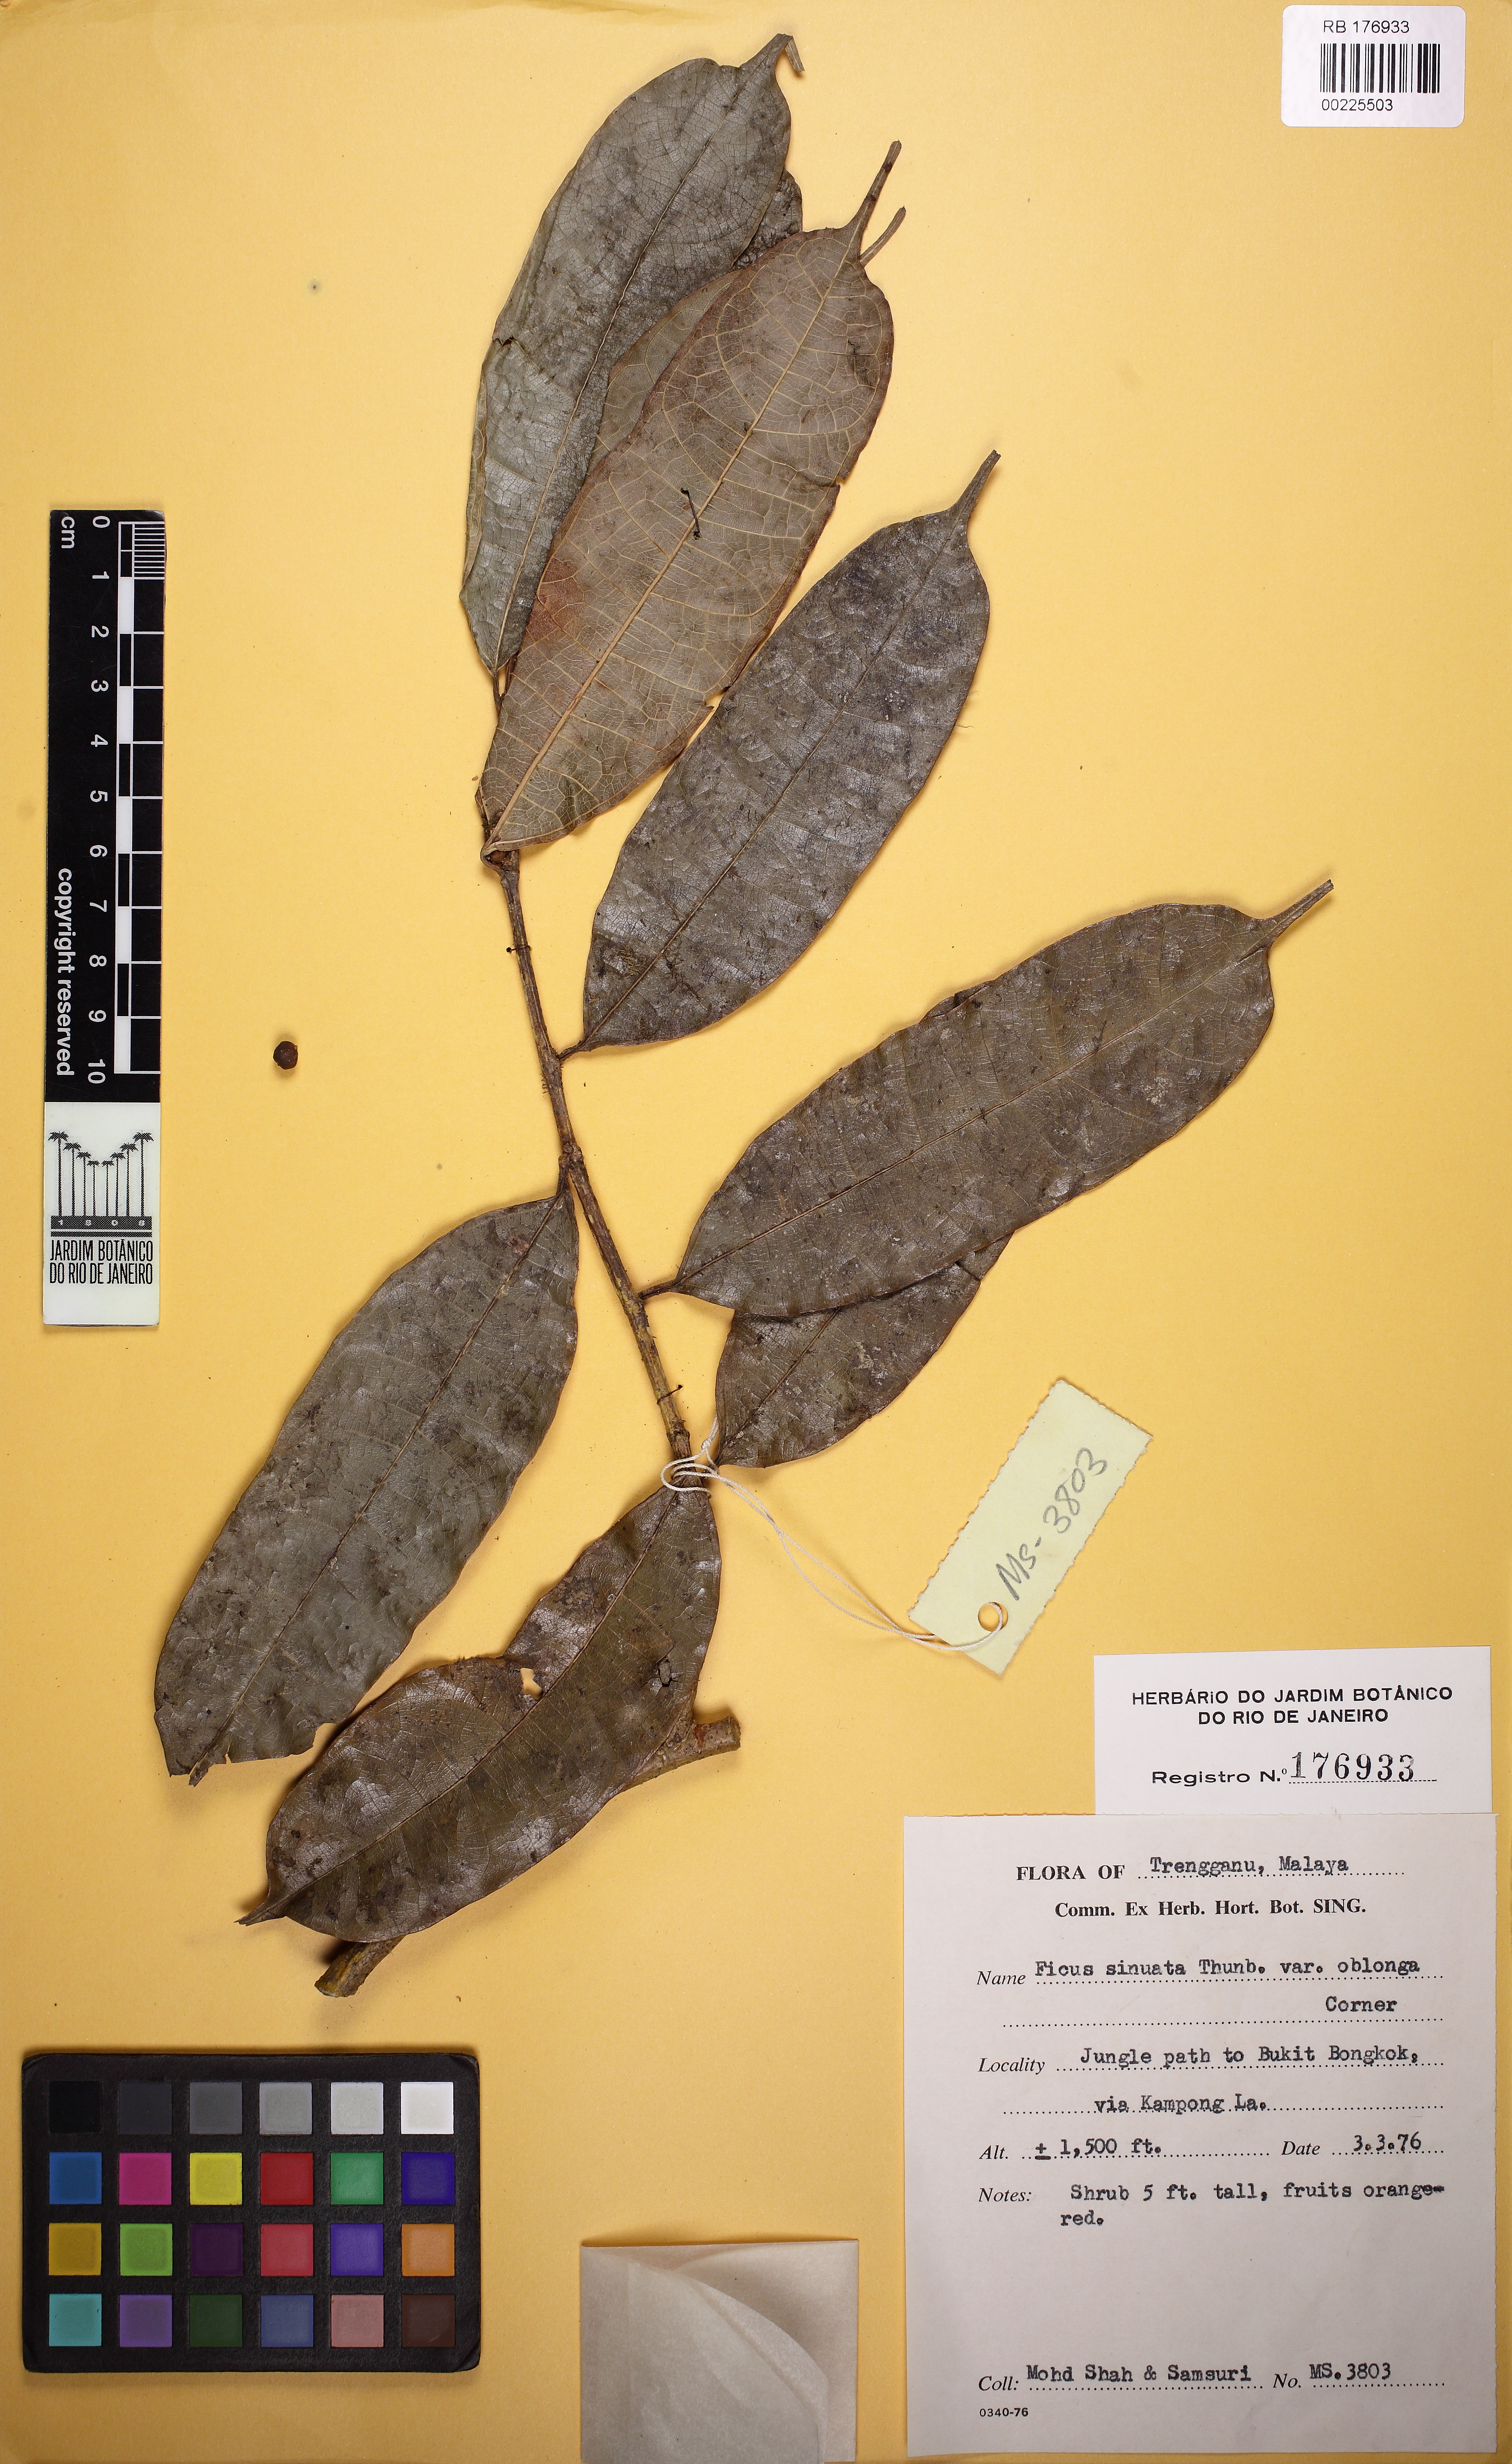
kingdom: Plantae
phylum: Tracheophyta
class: Magnoliopsida
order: Rosales
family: Moraceae
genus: Ficus
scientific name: Ficus sinuata
